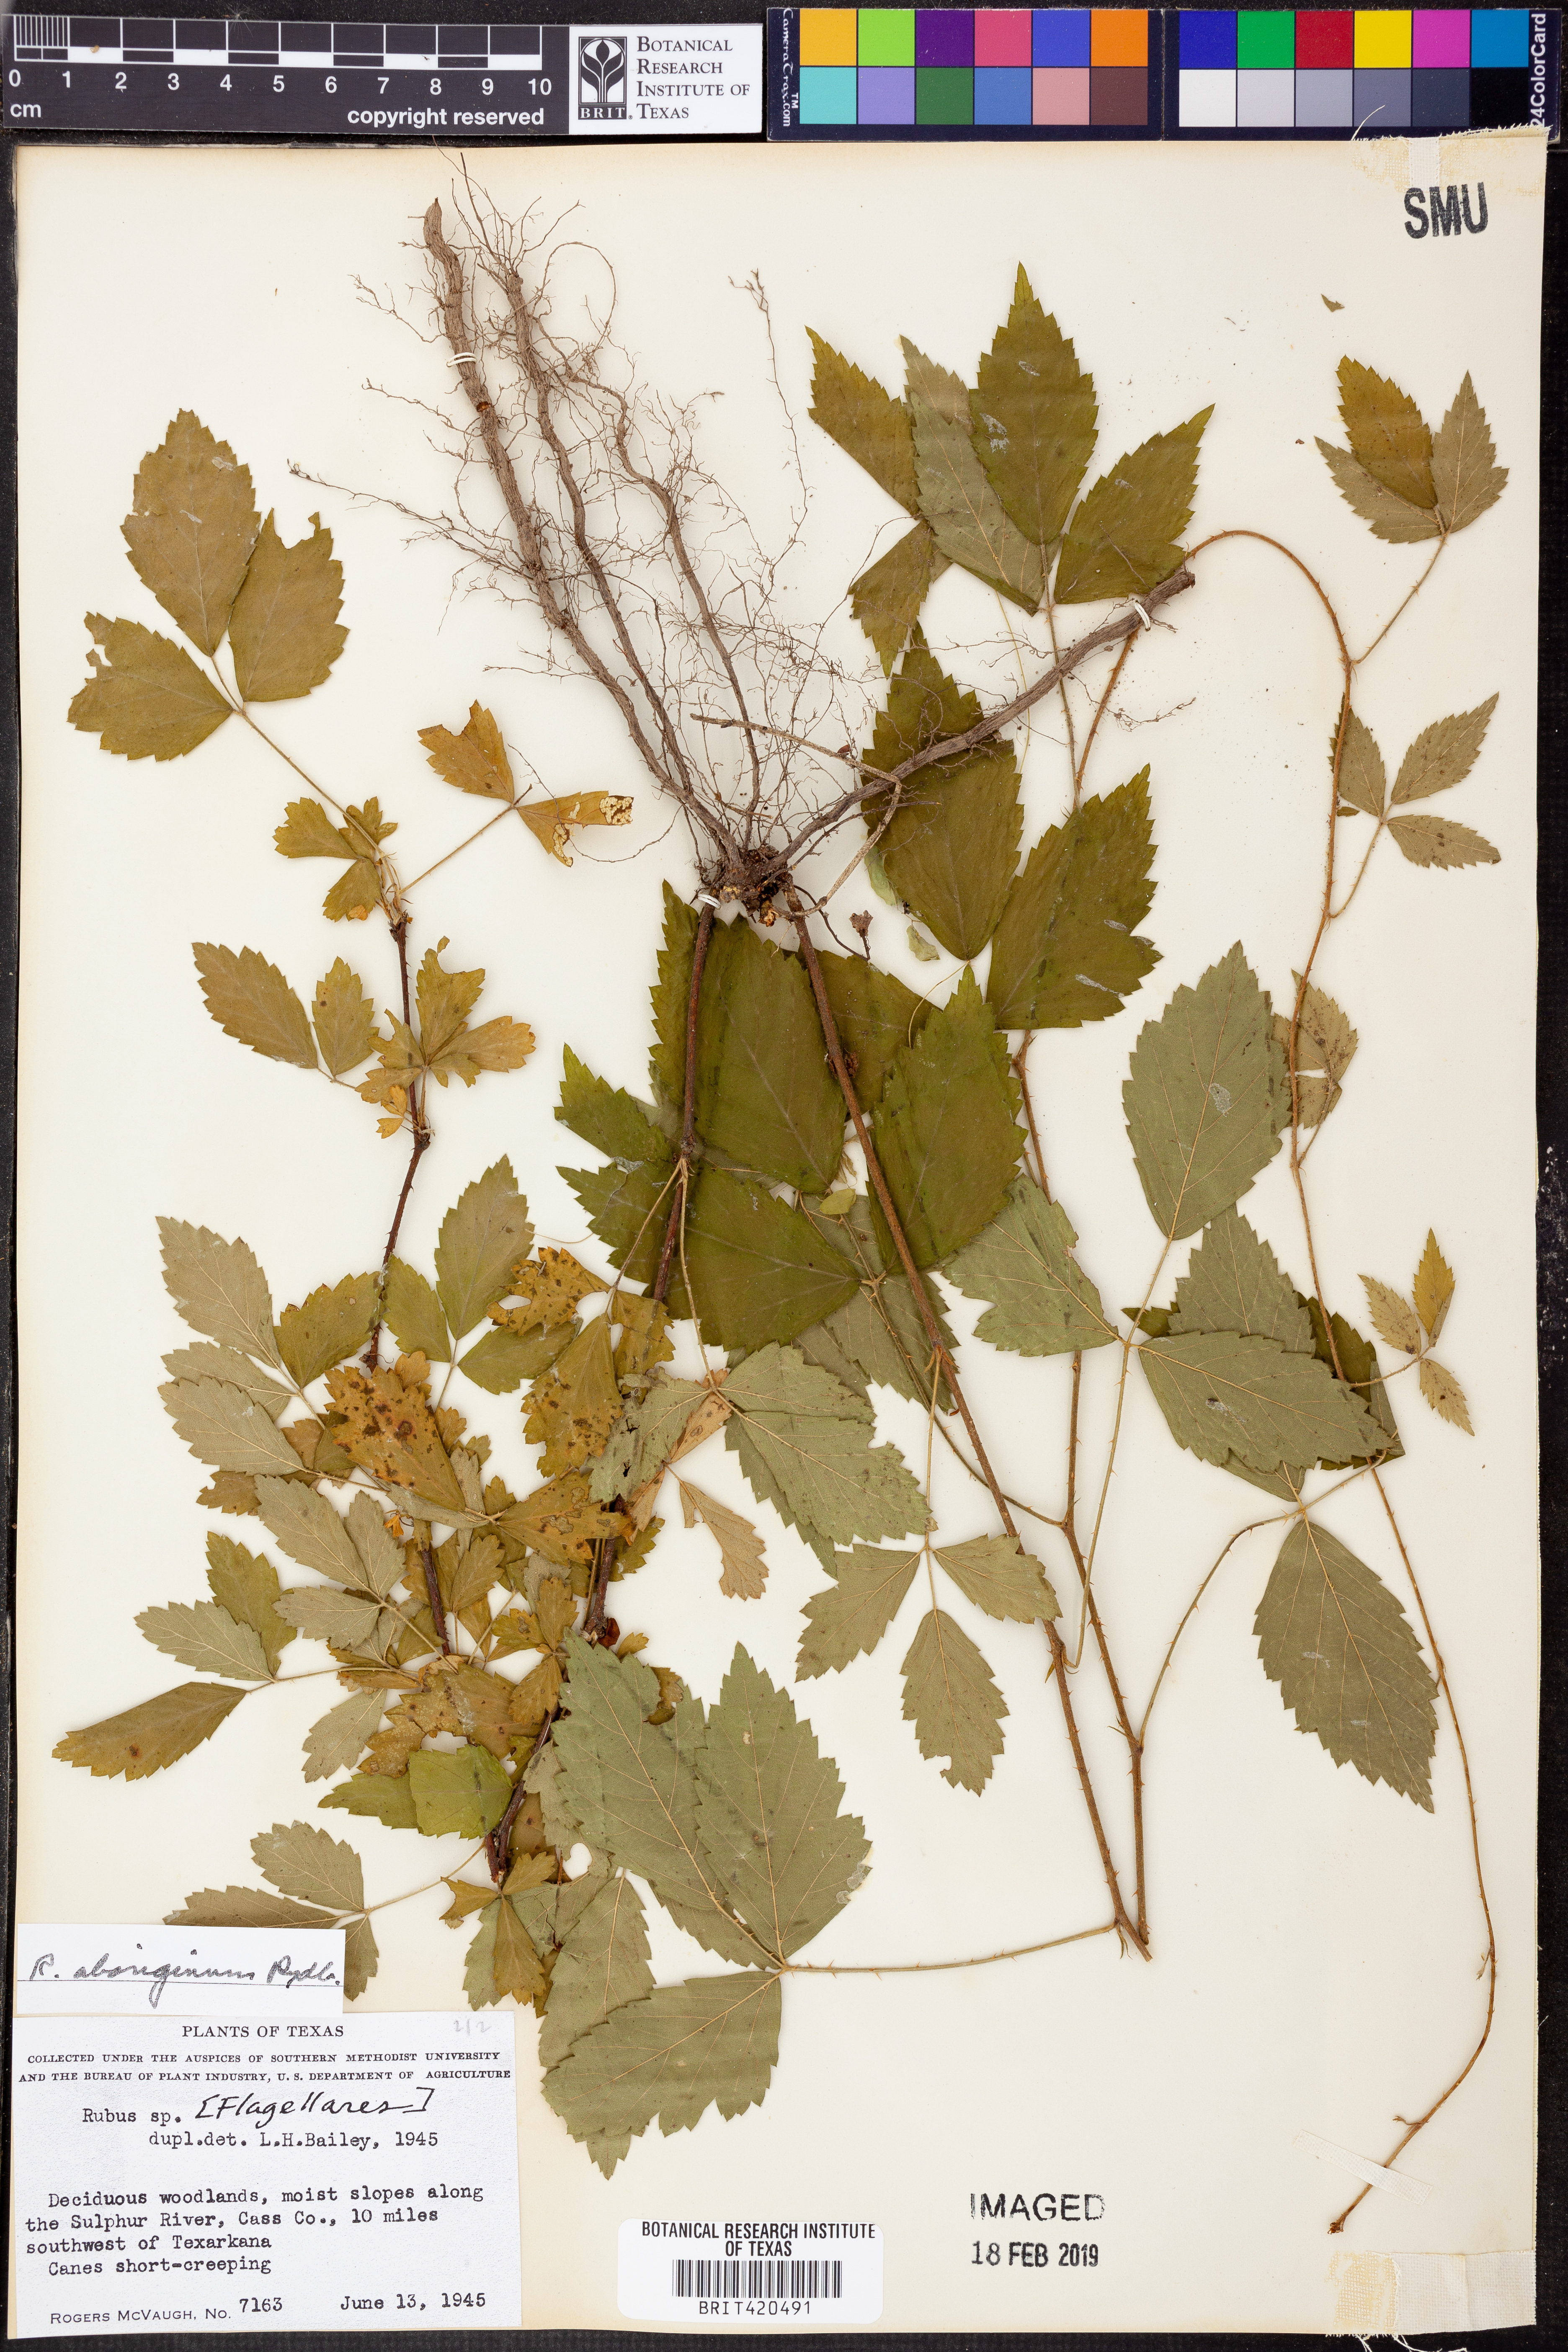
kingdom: Plantae
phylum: Tracheophyta
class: Magnoliopsida
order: Rosales
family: Rosaceae
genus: Rubus
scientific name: Rubus aboriginum
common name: Mayes dewberry
